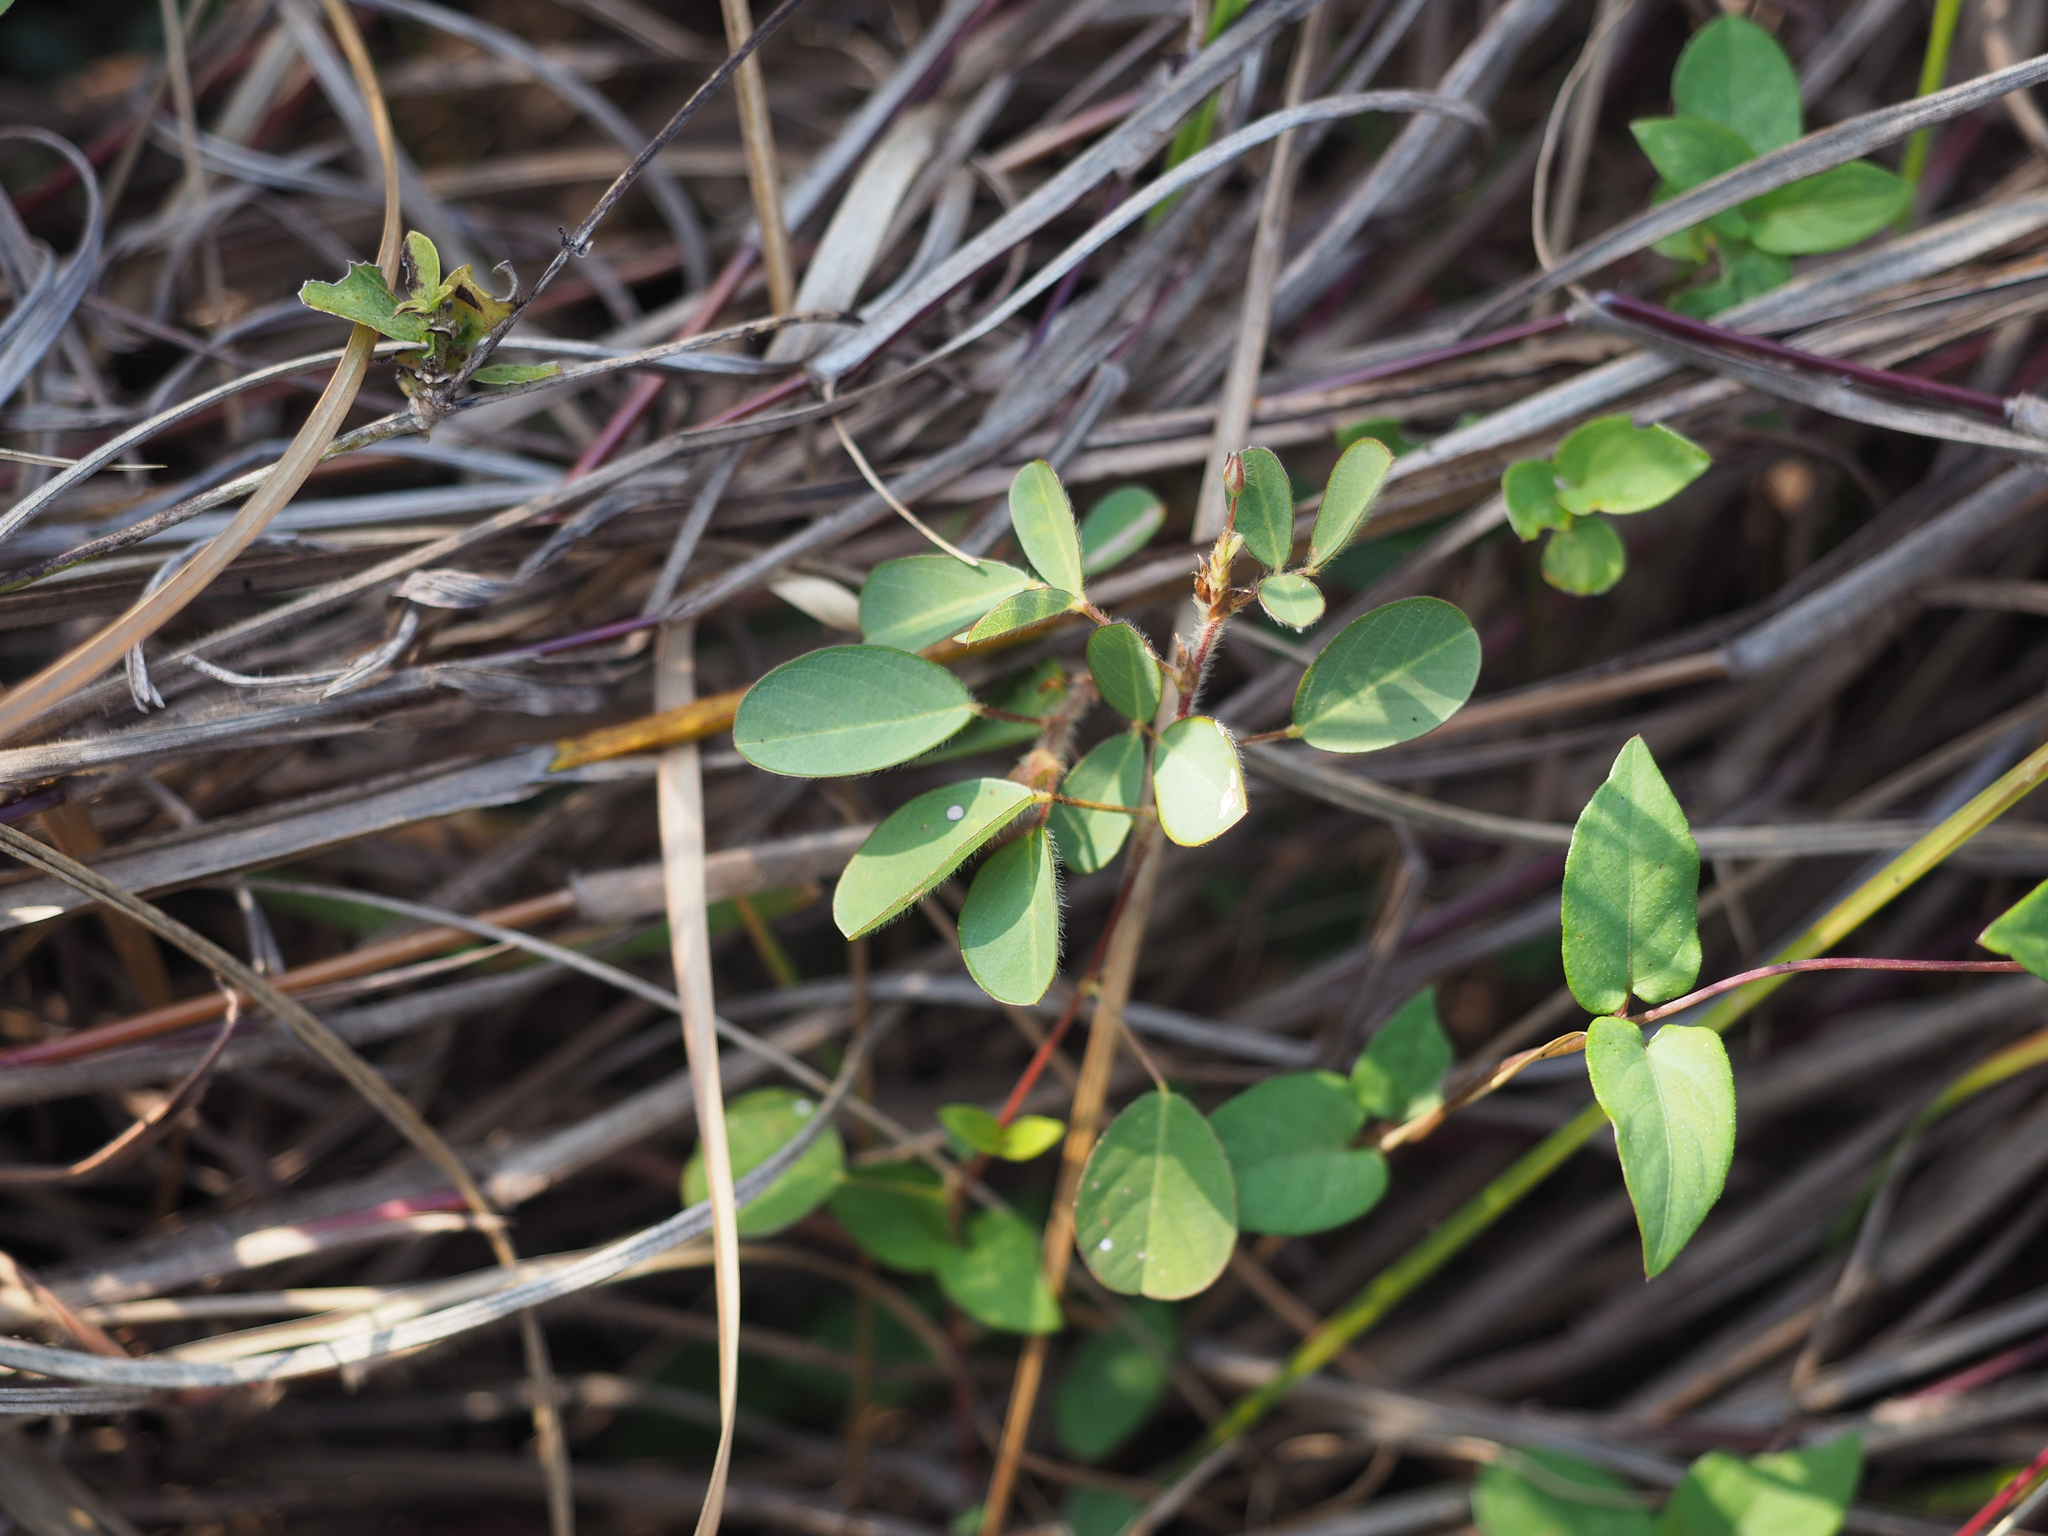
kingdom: Plantae
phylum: Tracheophyta
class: Magnoliopsida
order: Fabales
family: Fabaceae
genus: Grona
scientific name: Grona heterophylla
